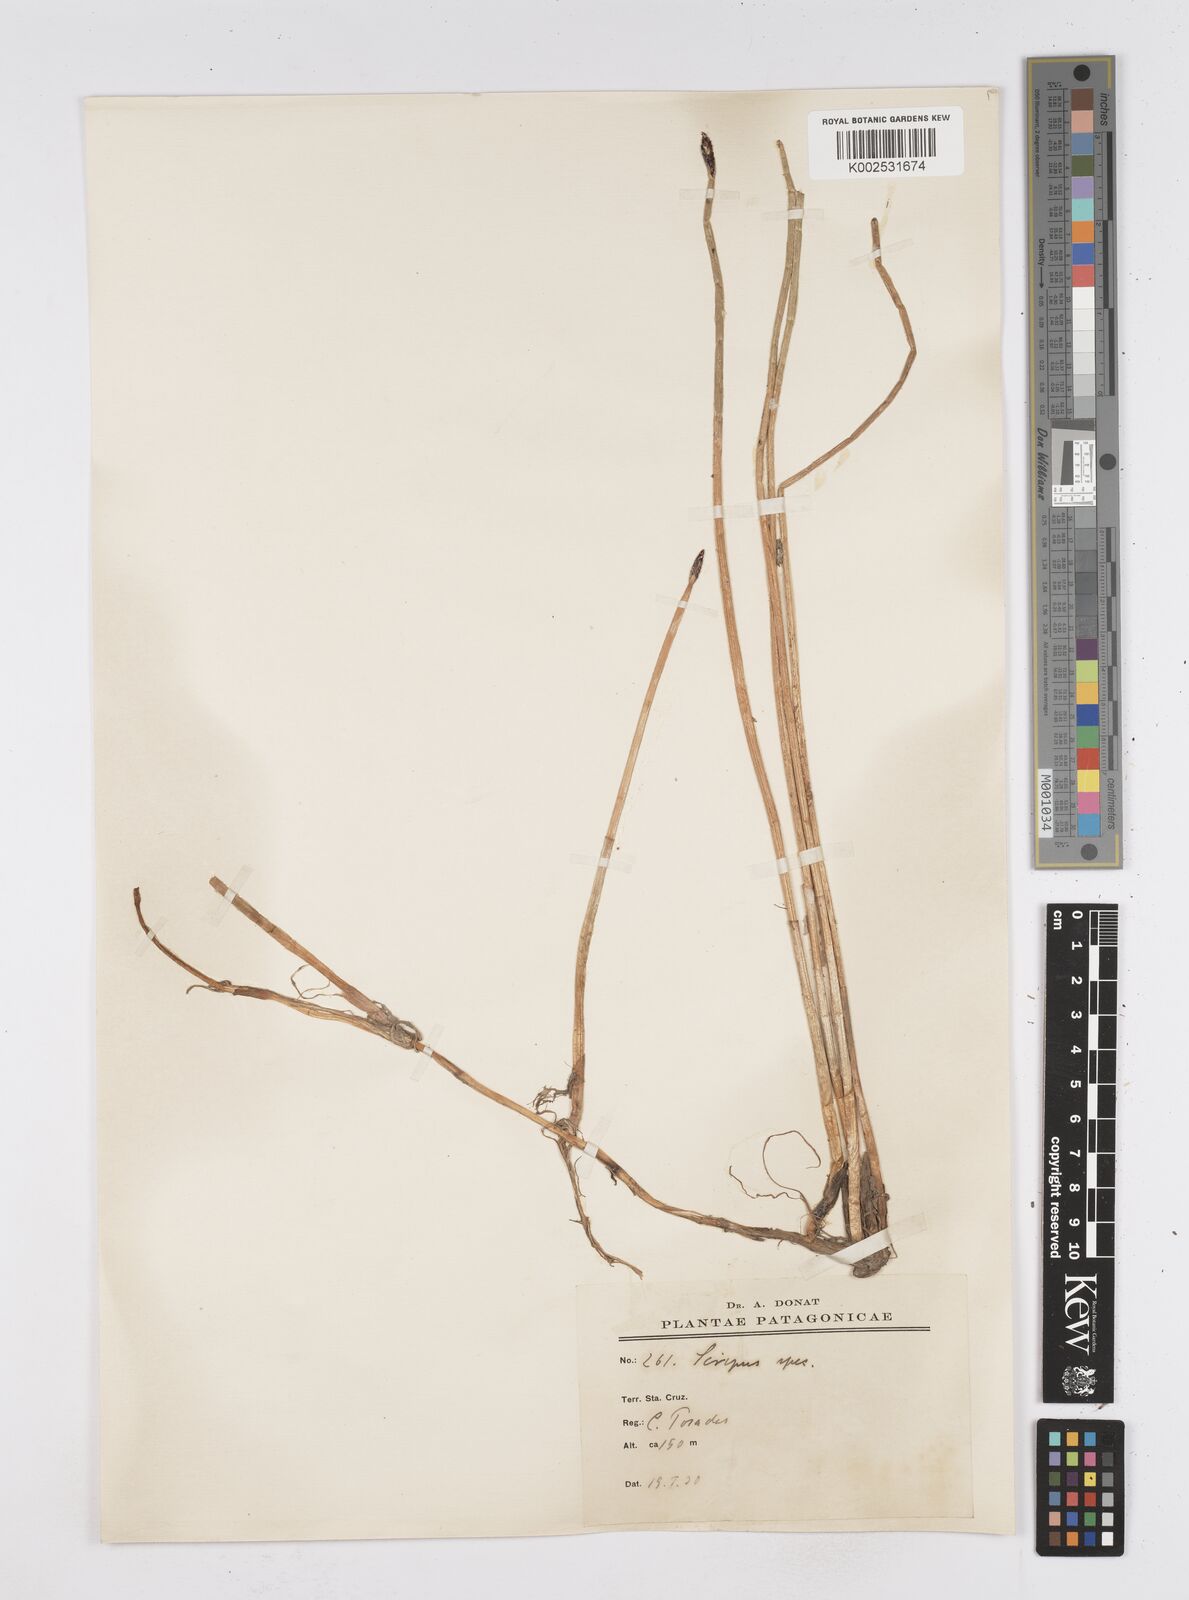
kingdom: Plantae
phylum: Tracheophyta
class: Liliopsida
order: Poales
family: Cyperaceae
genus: Eleocharis
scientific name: Eleocharis
